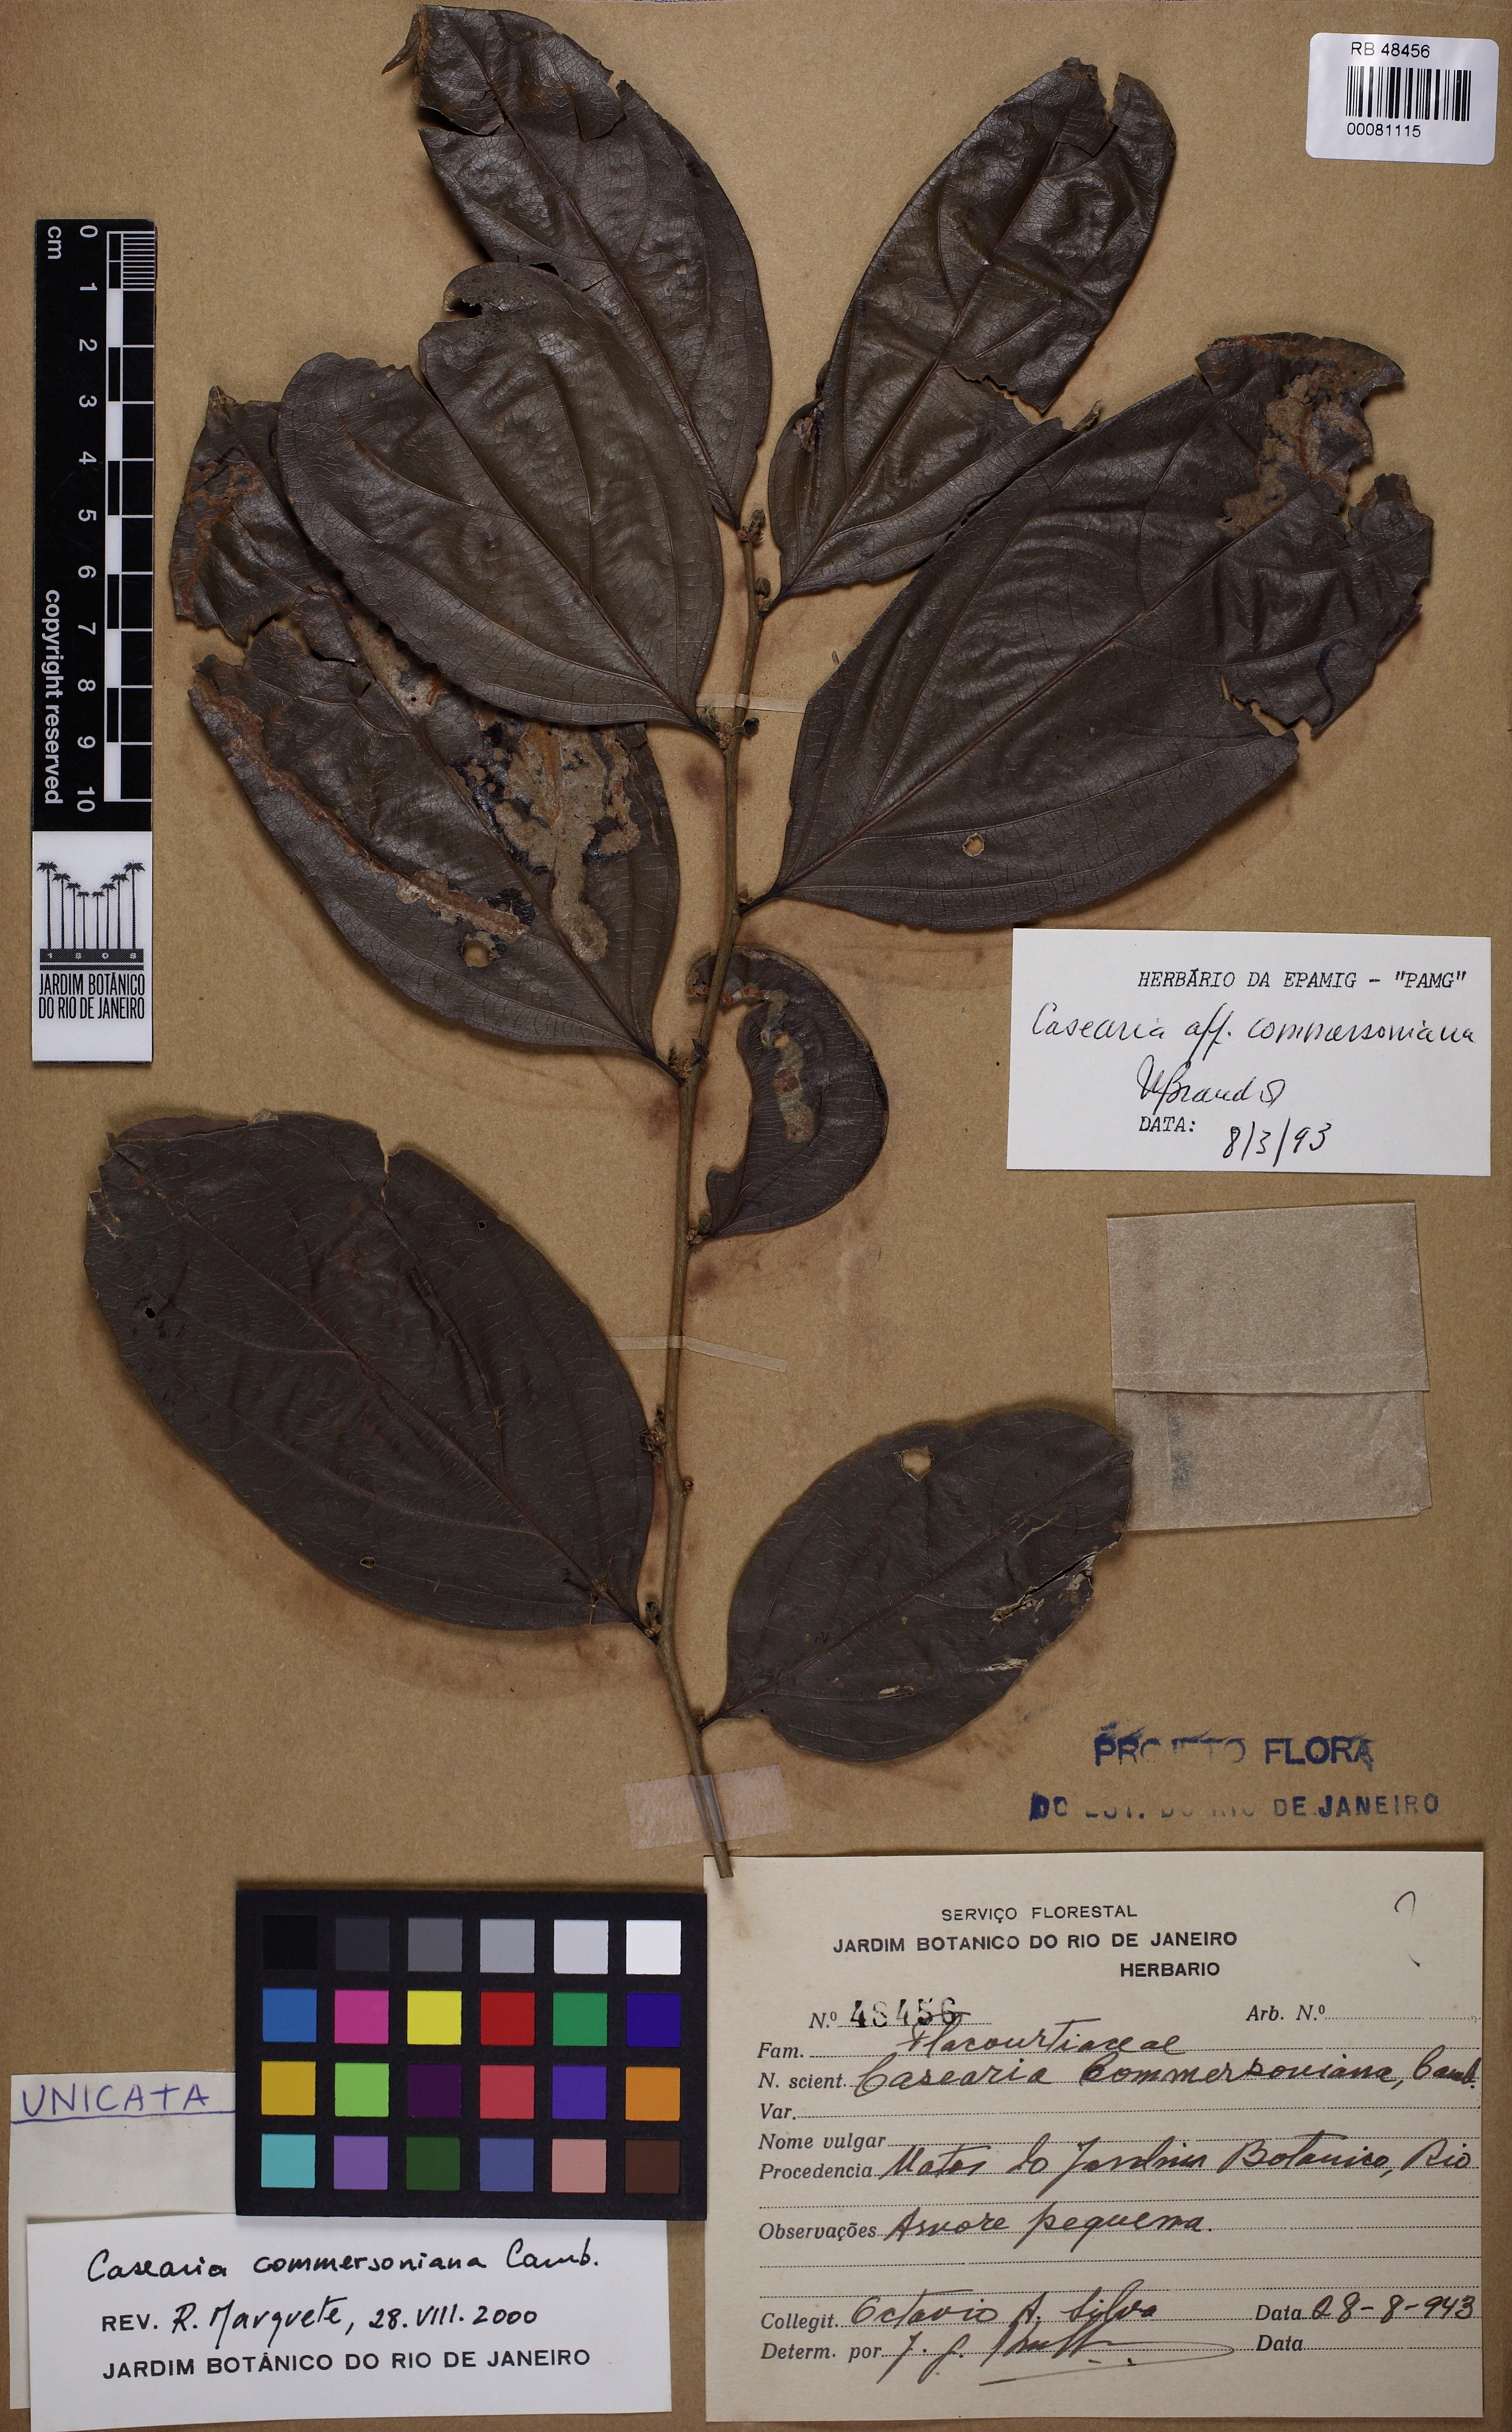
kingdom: Plantae
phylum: Tracheophyta
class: Magnoliopsida
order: Malpighiales
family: Salicaceae
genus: Piparea
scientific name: Piparea dentata
